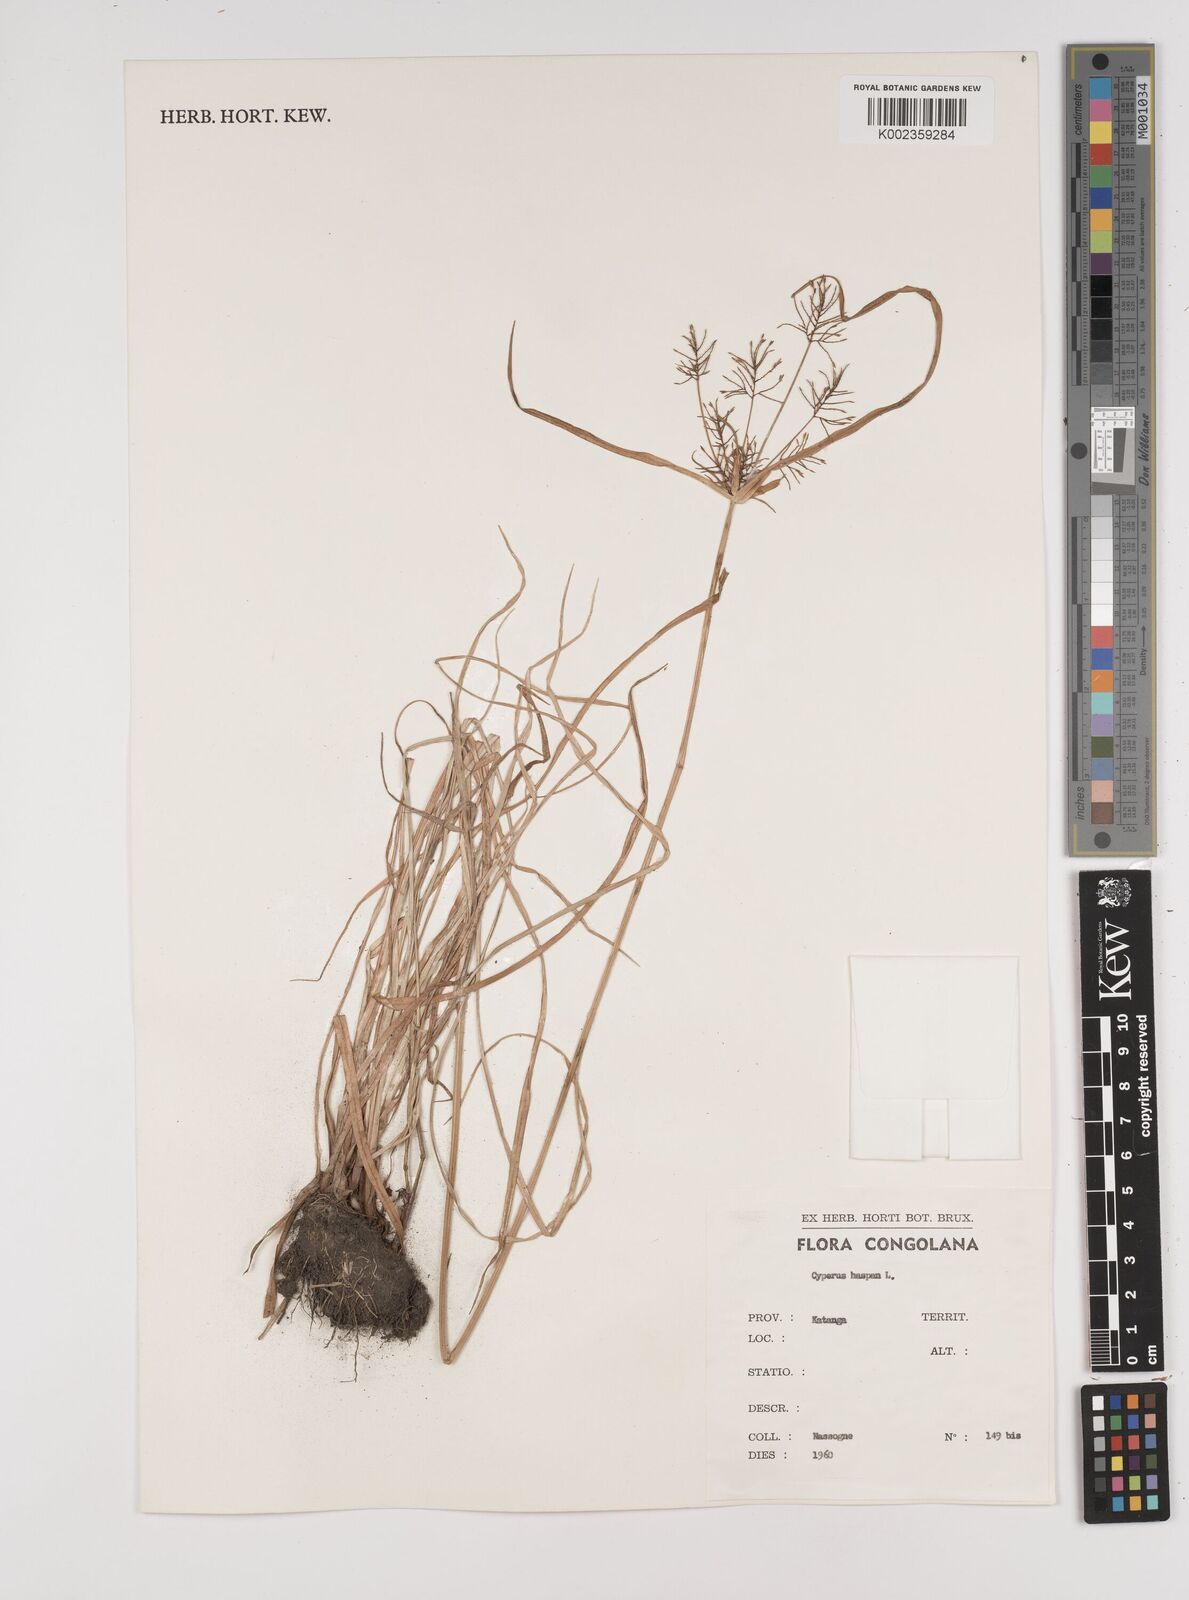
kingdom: Plantae
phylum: Tracheophyta
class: Liliopsida
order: Poales
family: Cyperaceae
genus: Cyperus
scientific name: Cyperus haspan
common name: Haspan flatsedge
